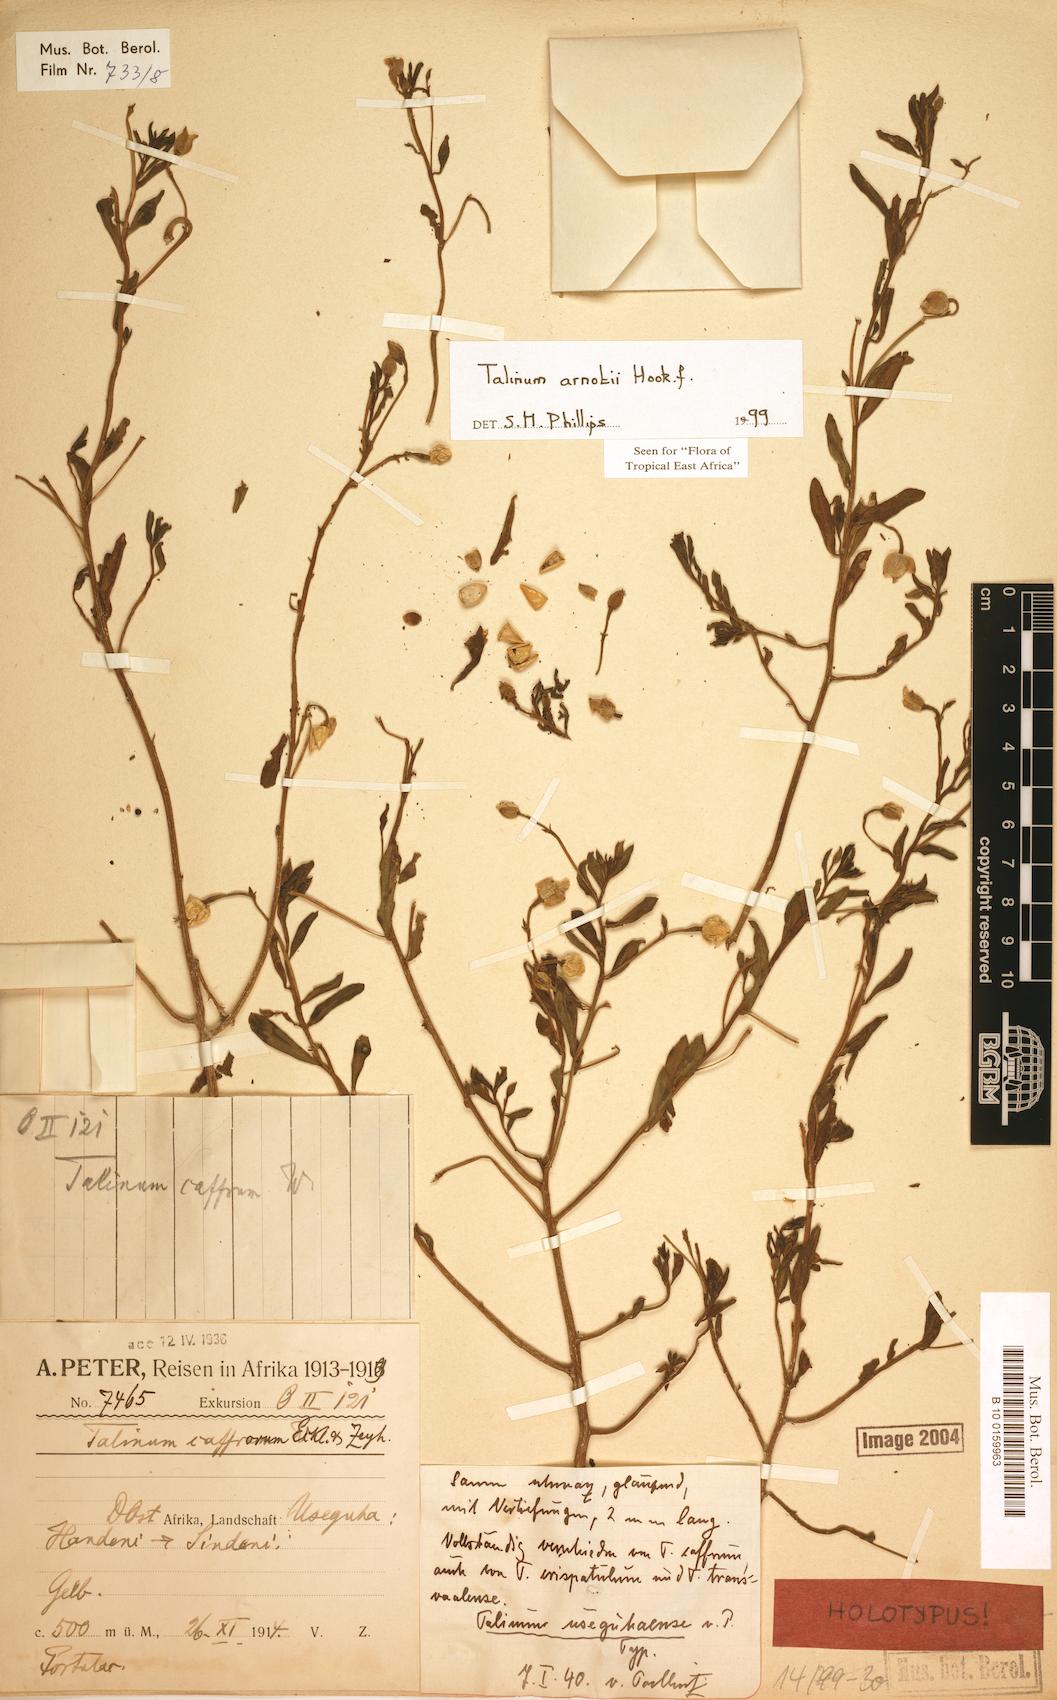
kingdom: Plantae
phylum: Tracheophyta
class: Magnoliopsida
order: Caryophyllales
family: Talinaceae
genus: Talinum
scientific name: Talinum arnotii
